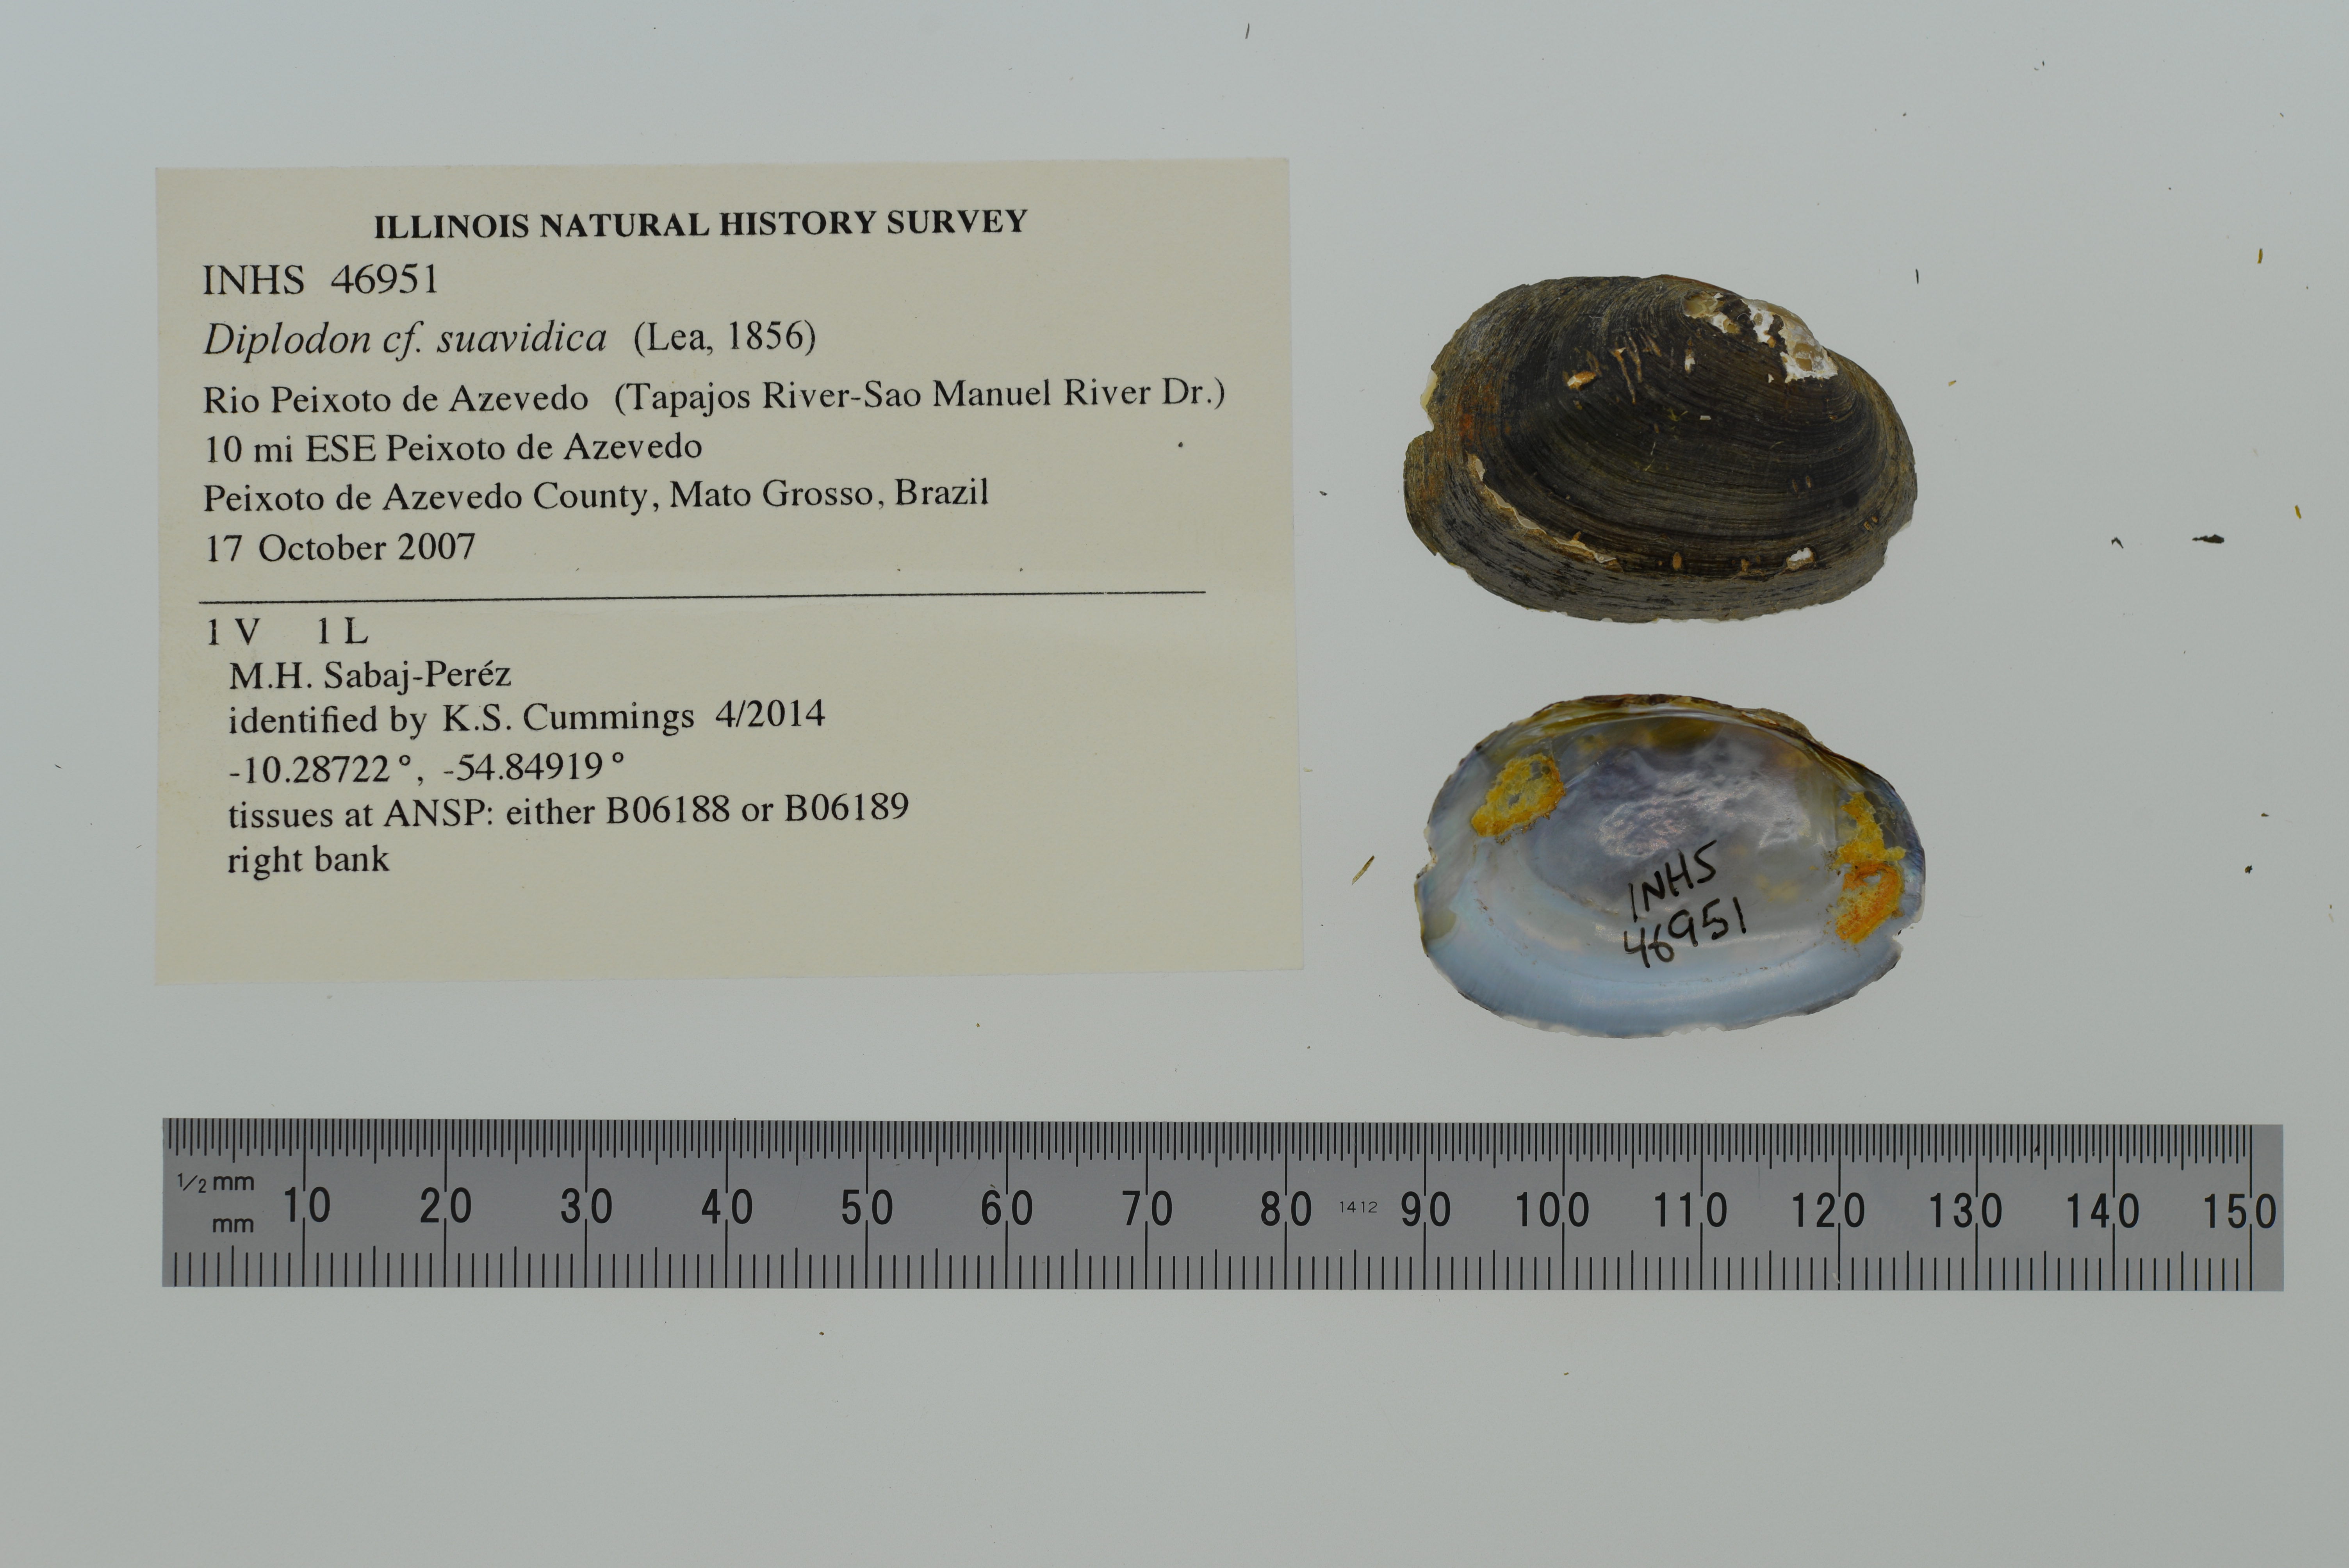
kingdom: Animalia
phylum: Mollusca
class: Bivalvia
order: Unionida
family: Hyriidae
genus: Diplodon
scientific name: Diplodon suavidicus
